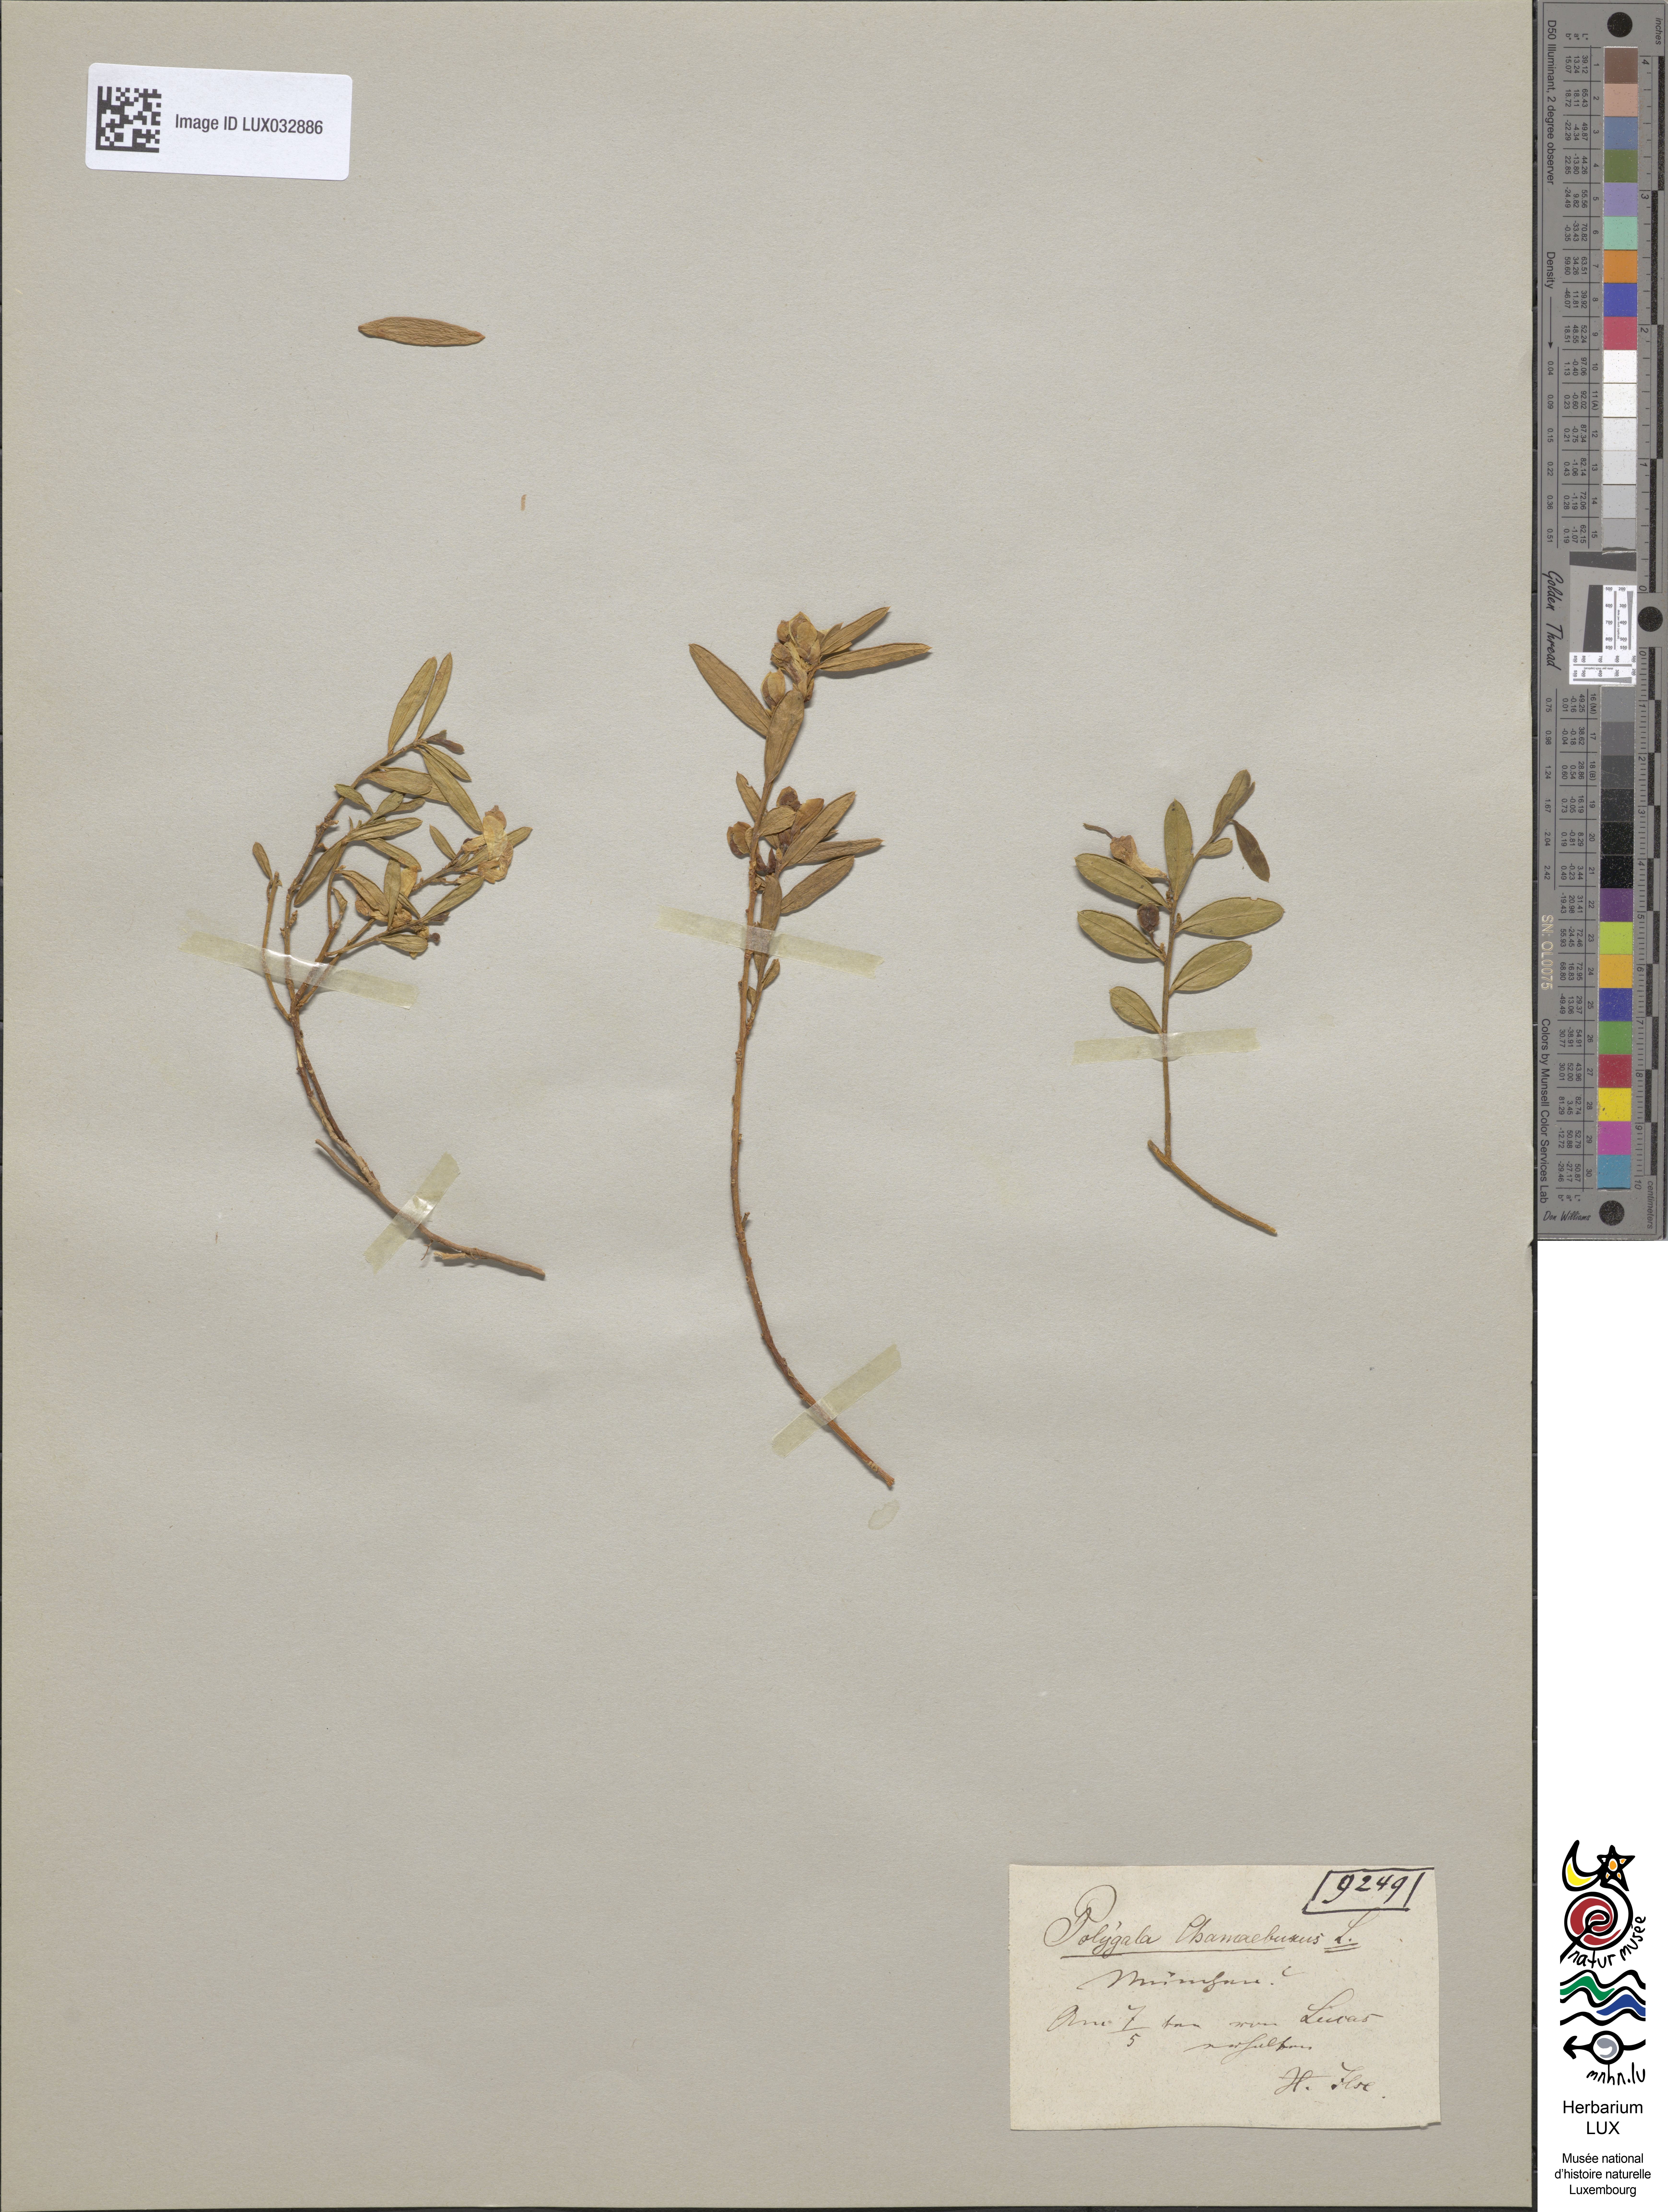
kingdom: Plantae
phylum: Tracheophyta
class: Magnoliopsida
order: Fabales
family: Polygalaceae
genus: Polygaloides
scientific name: Polygaloides chamaebuxus
